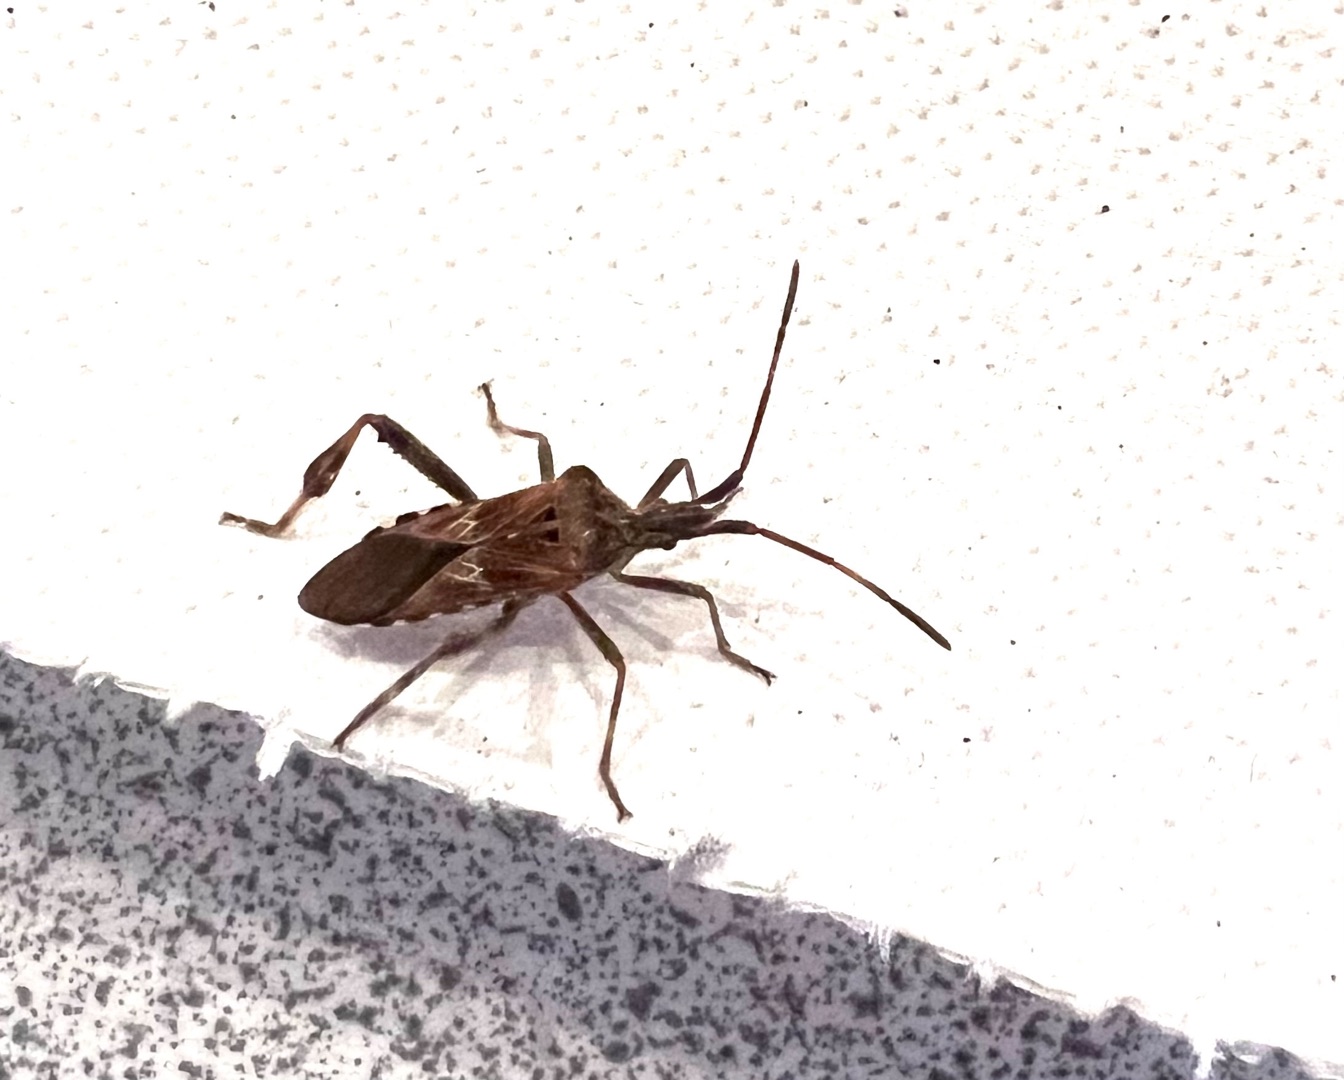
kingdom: Animalia
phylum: Arthropoda
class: Insecta
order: Hemiptera
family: Coreidae
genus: Leptoglossus
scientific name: Leptoglossus occidentalis
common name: Amerikansk fyrretæge
